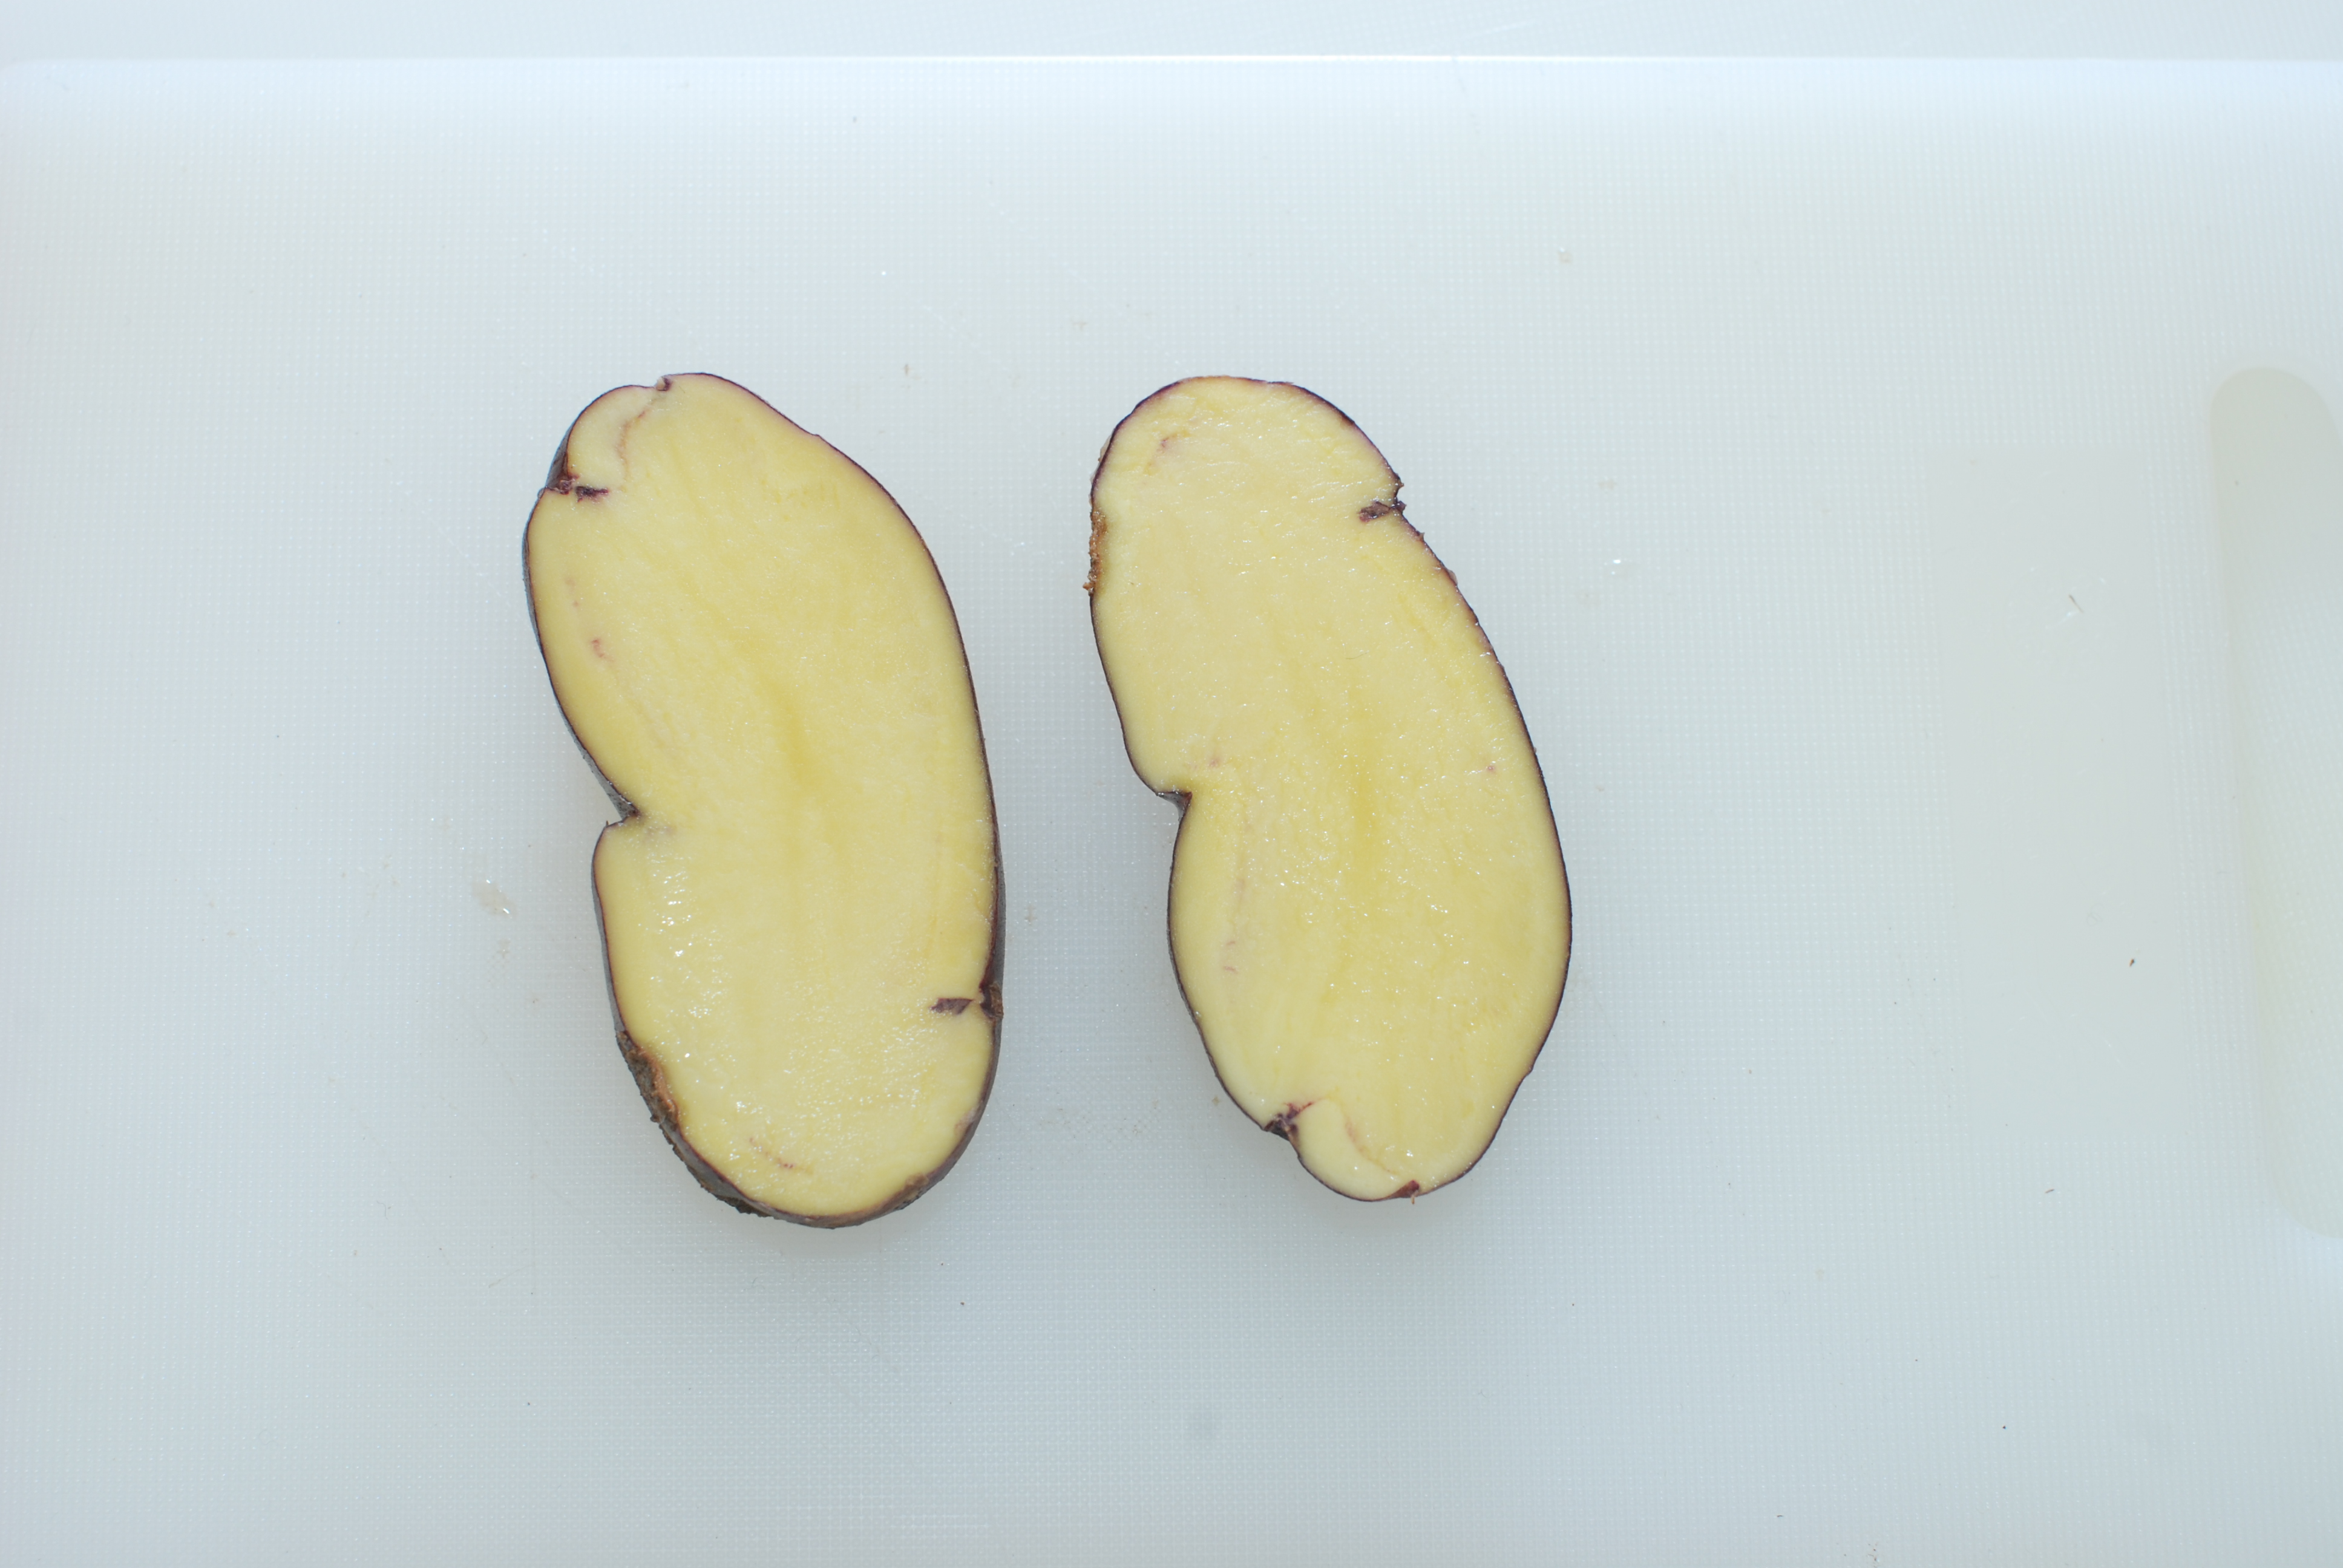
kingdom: Plantae
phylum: Tracheophyta
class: Magnoliopsida
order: Solanales
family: Solanaceae
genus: Solanum
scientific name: Solanum tuberosum
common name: Potato
